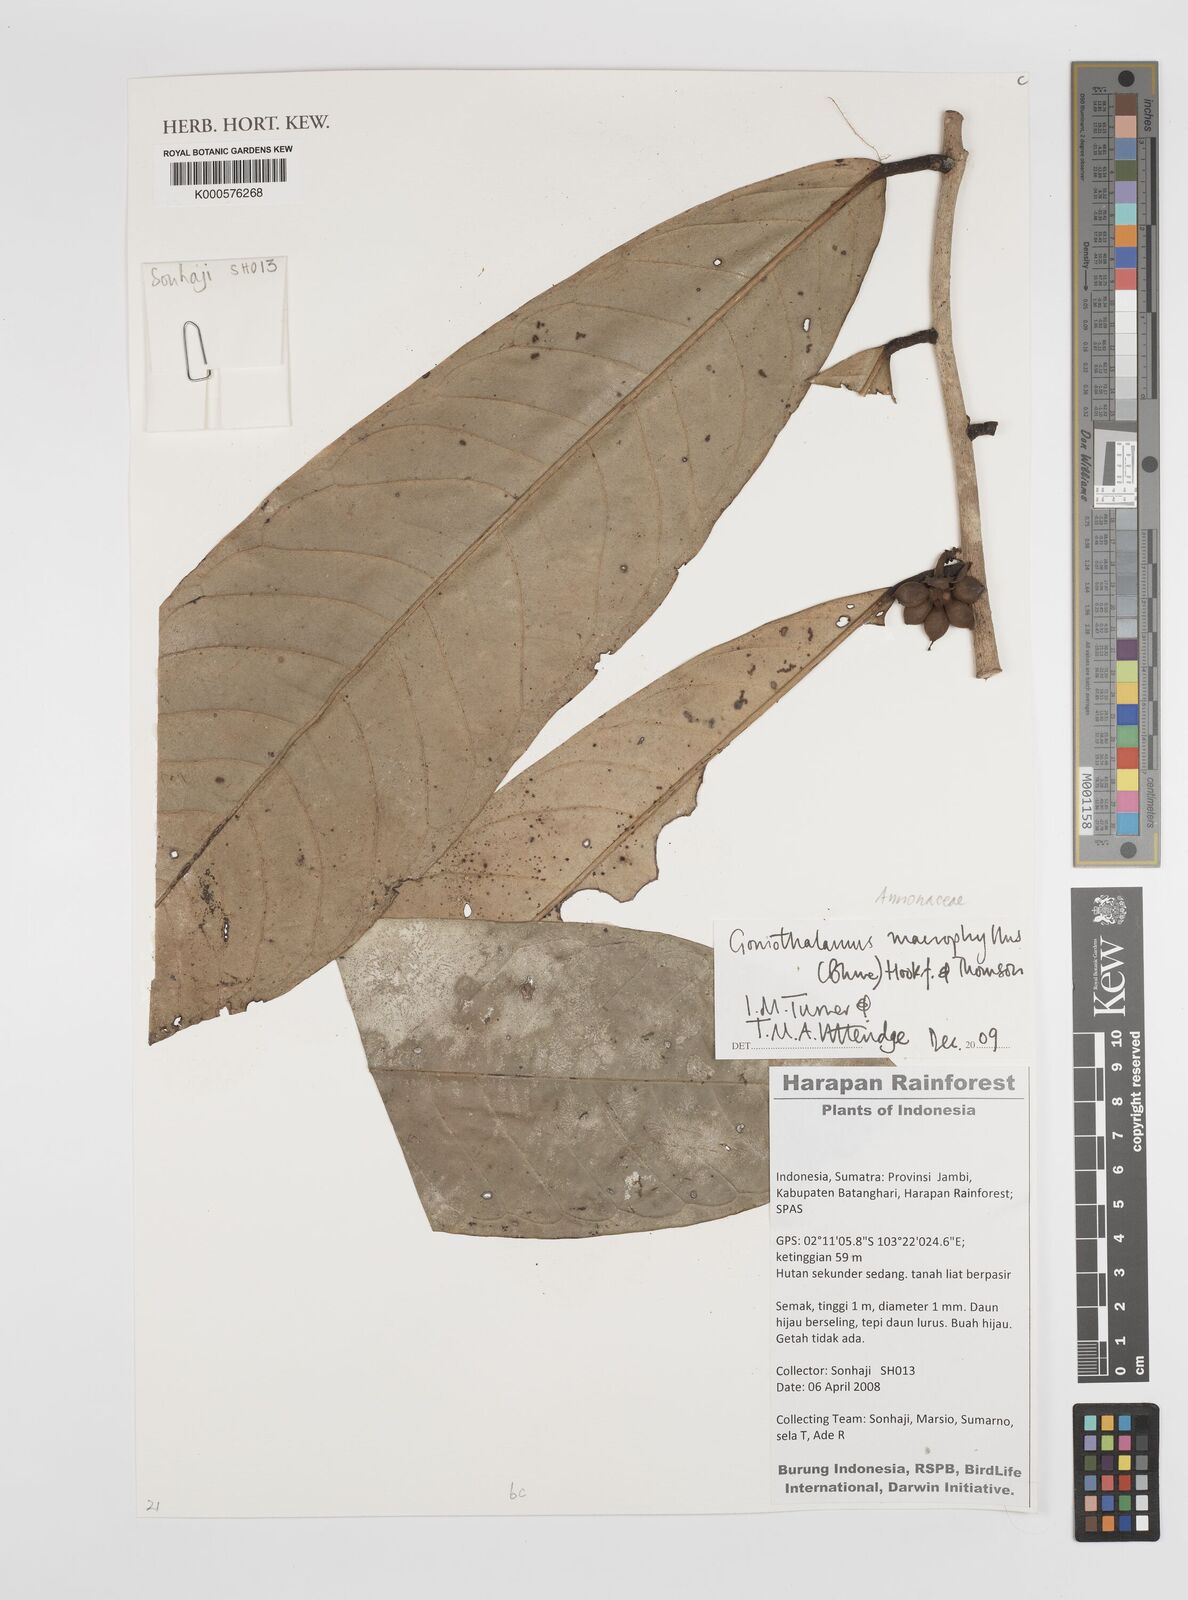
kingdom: Plantae
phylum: Tracheophyta
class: Magnoliopsida
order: Magnoliales
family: Annonaceae
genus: Goniothalamus
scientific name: Goniothalamus
